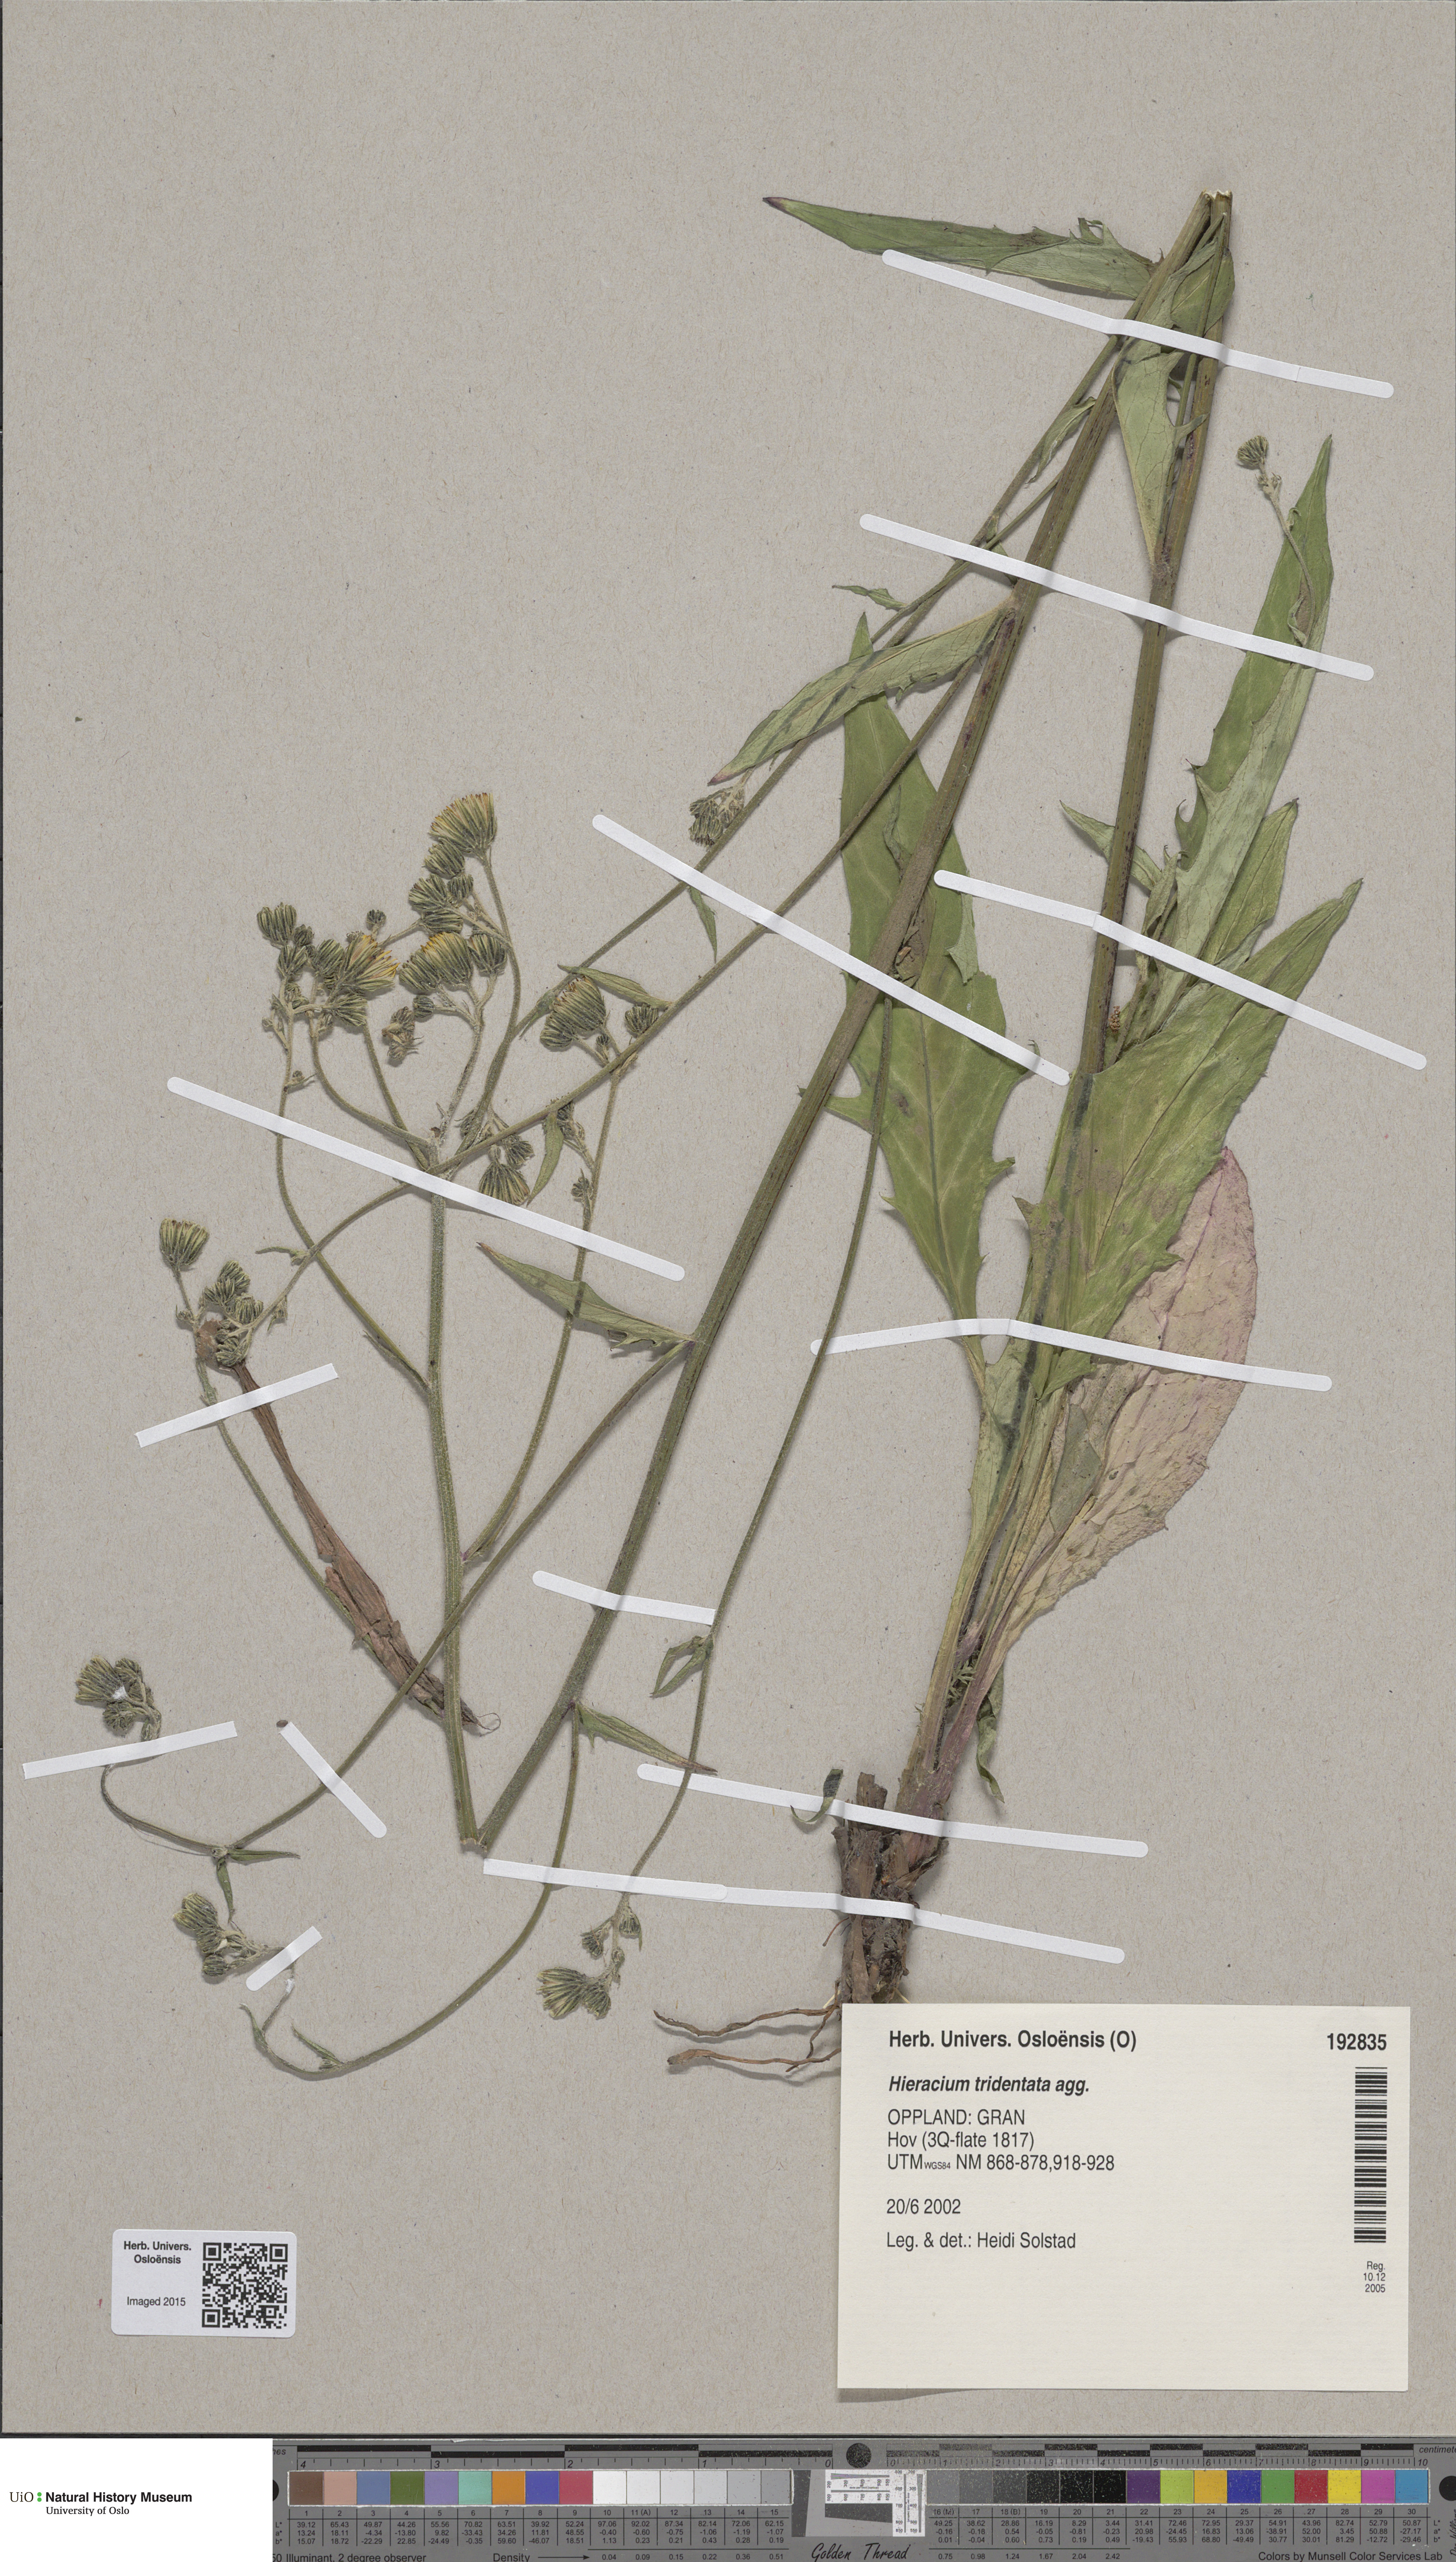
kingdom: Plantae
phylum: Tracheophyta
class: Magnoliopsida
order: Asterales
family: Asteraceae
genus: Hieracium
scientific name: Hieracium tridentatum
